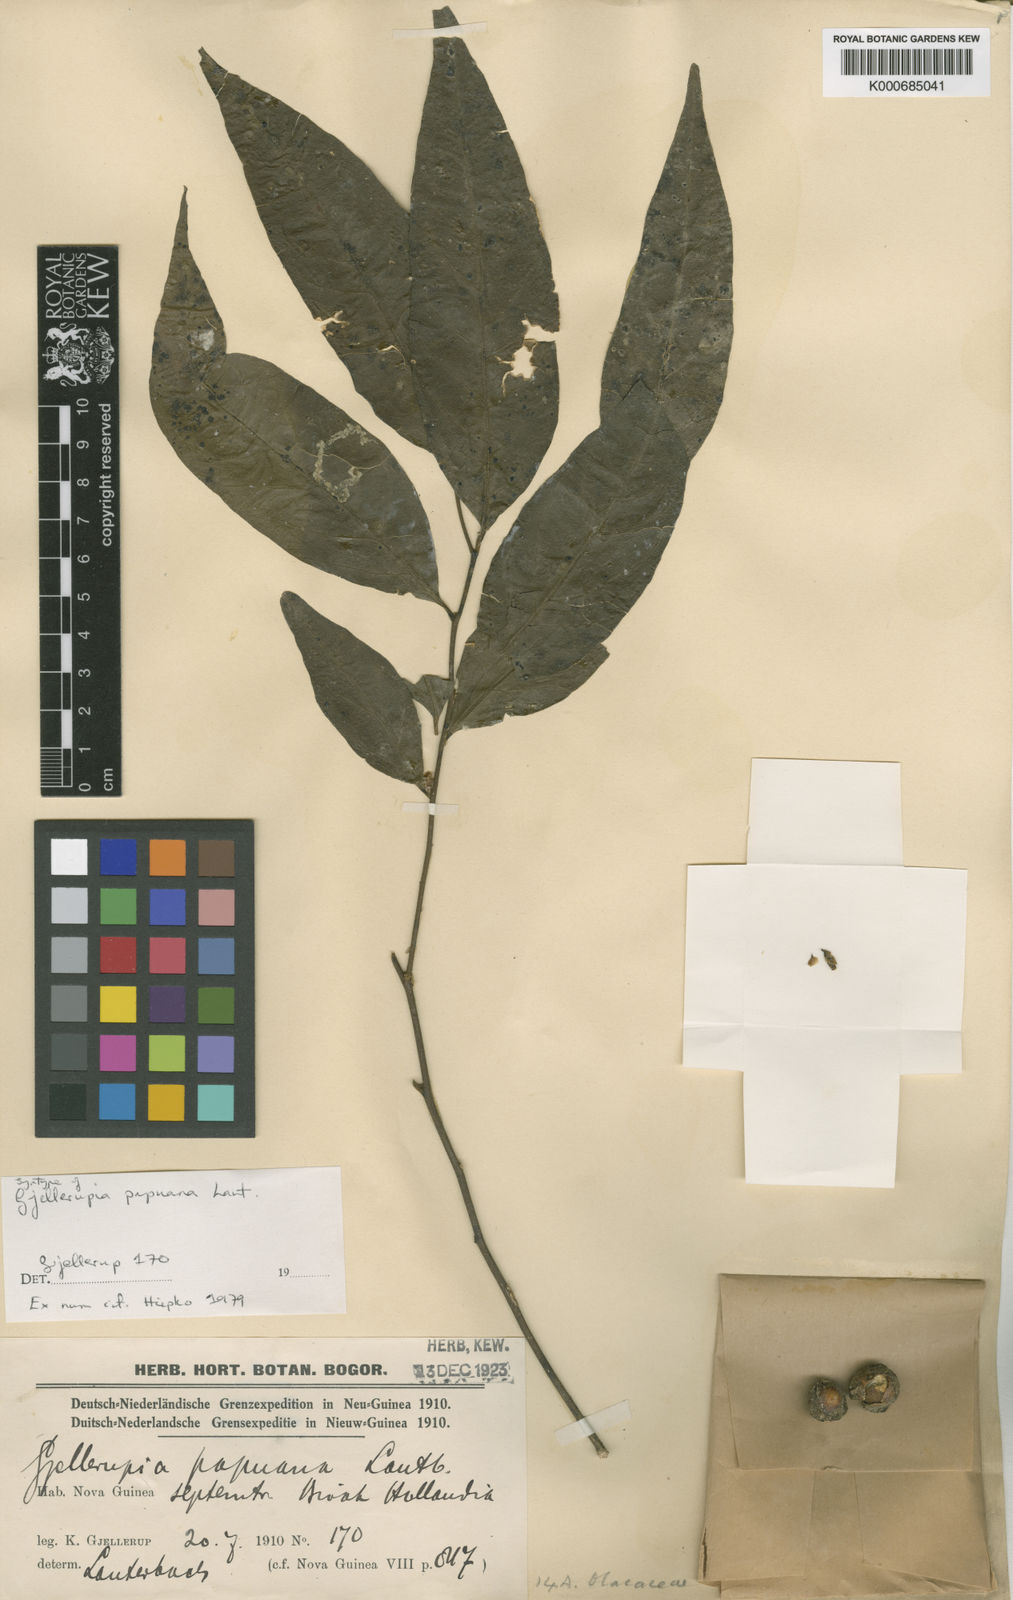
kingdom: Plantae
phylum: Tracheophyta
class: Magnoliopsida
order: Santalales
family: Opiliaceae
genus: Gjellerupia
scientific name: Gjellerupia papuana
